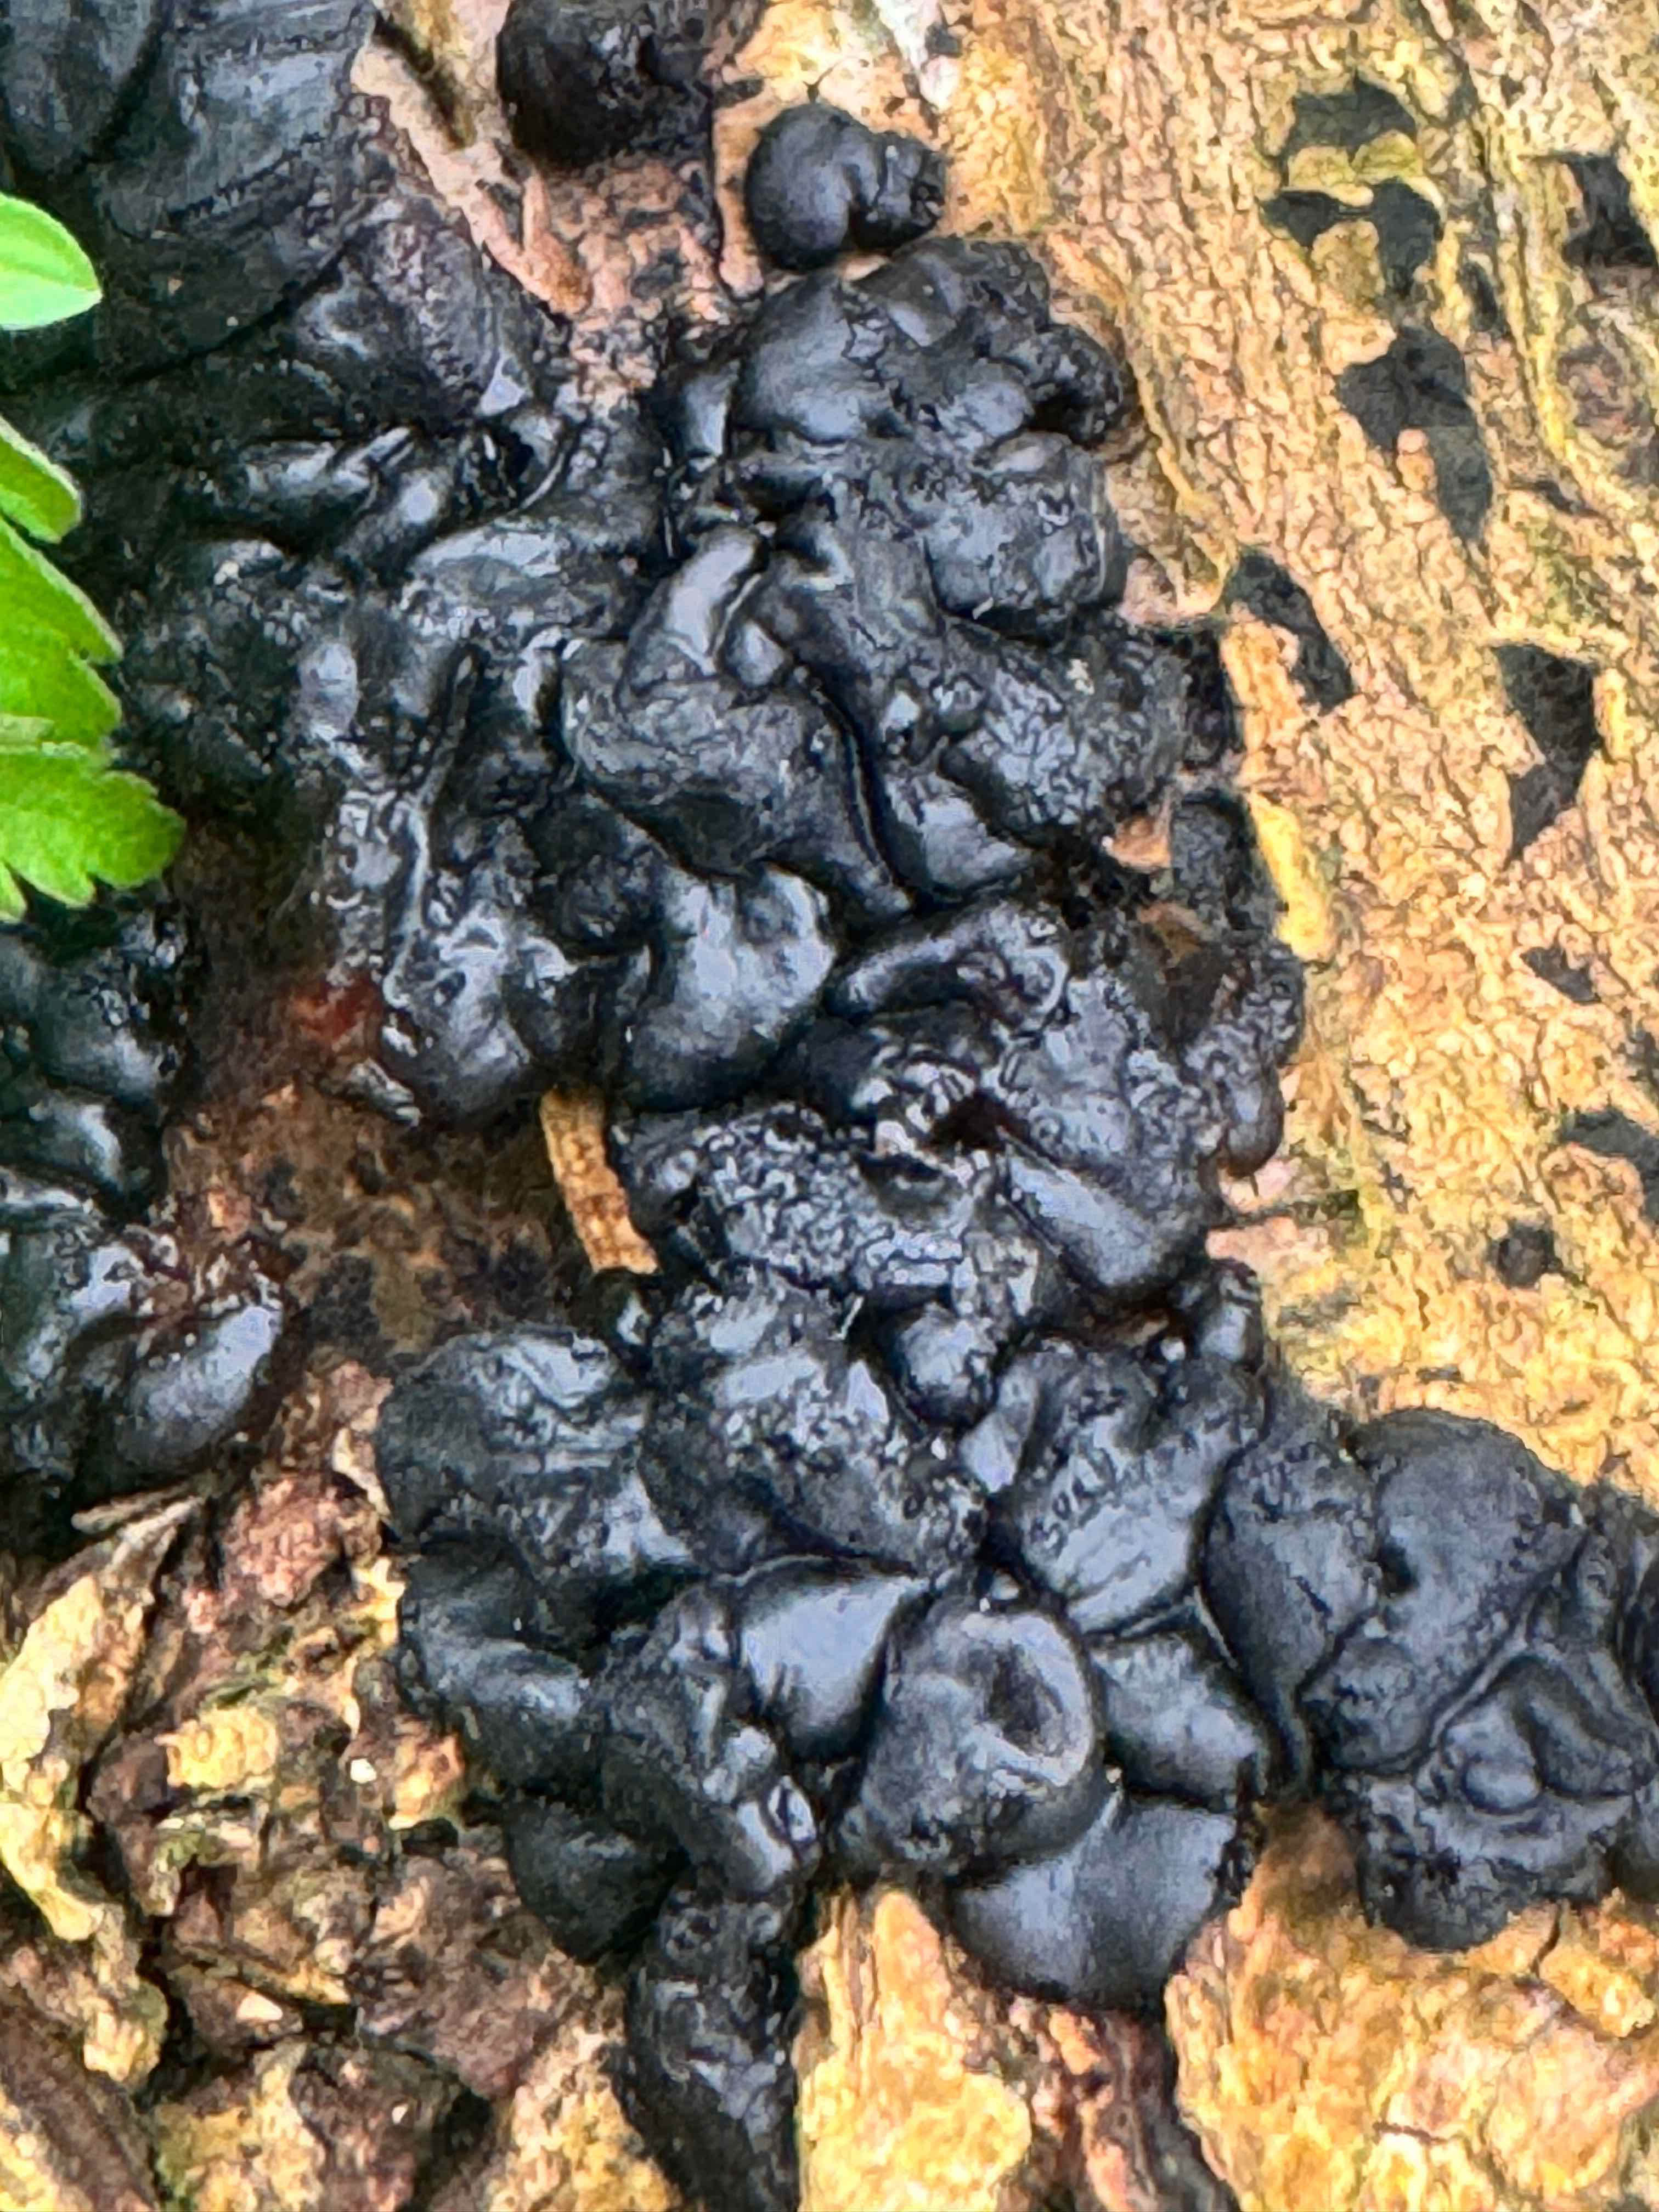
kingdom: Fungi
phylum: Basidiomycota
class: Agaricomycetes
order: Auriculariales
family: Auriculariaceae
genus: Exidia
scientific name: Exidia nigricans
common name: almindelig bævretop
